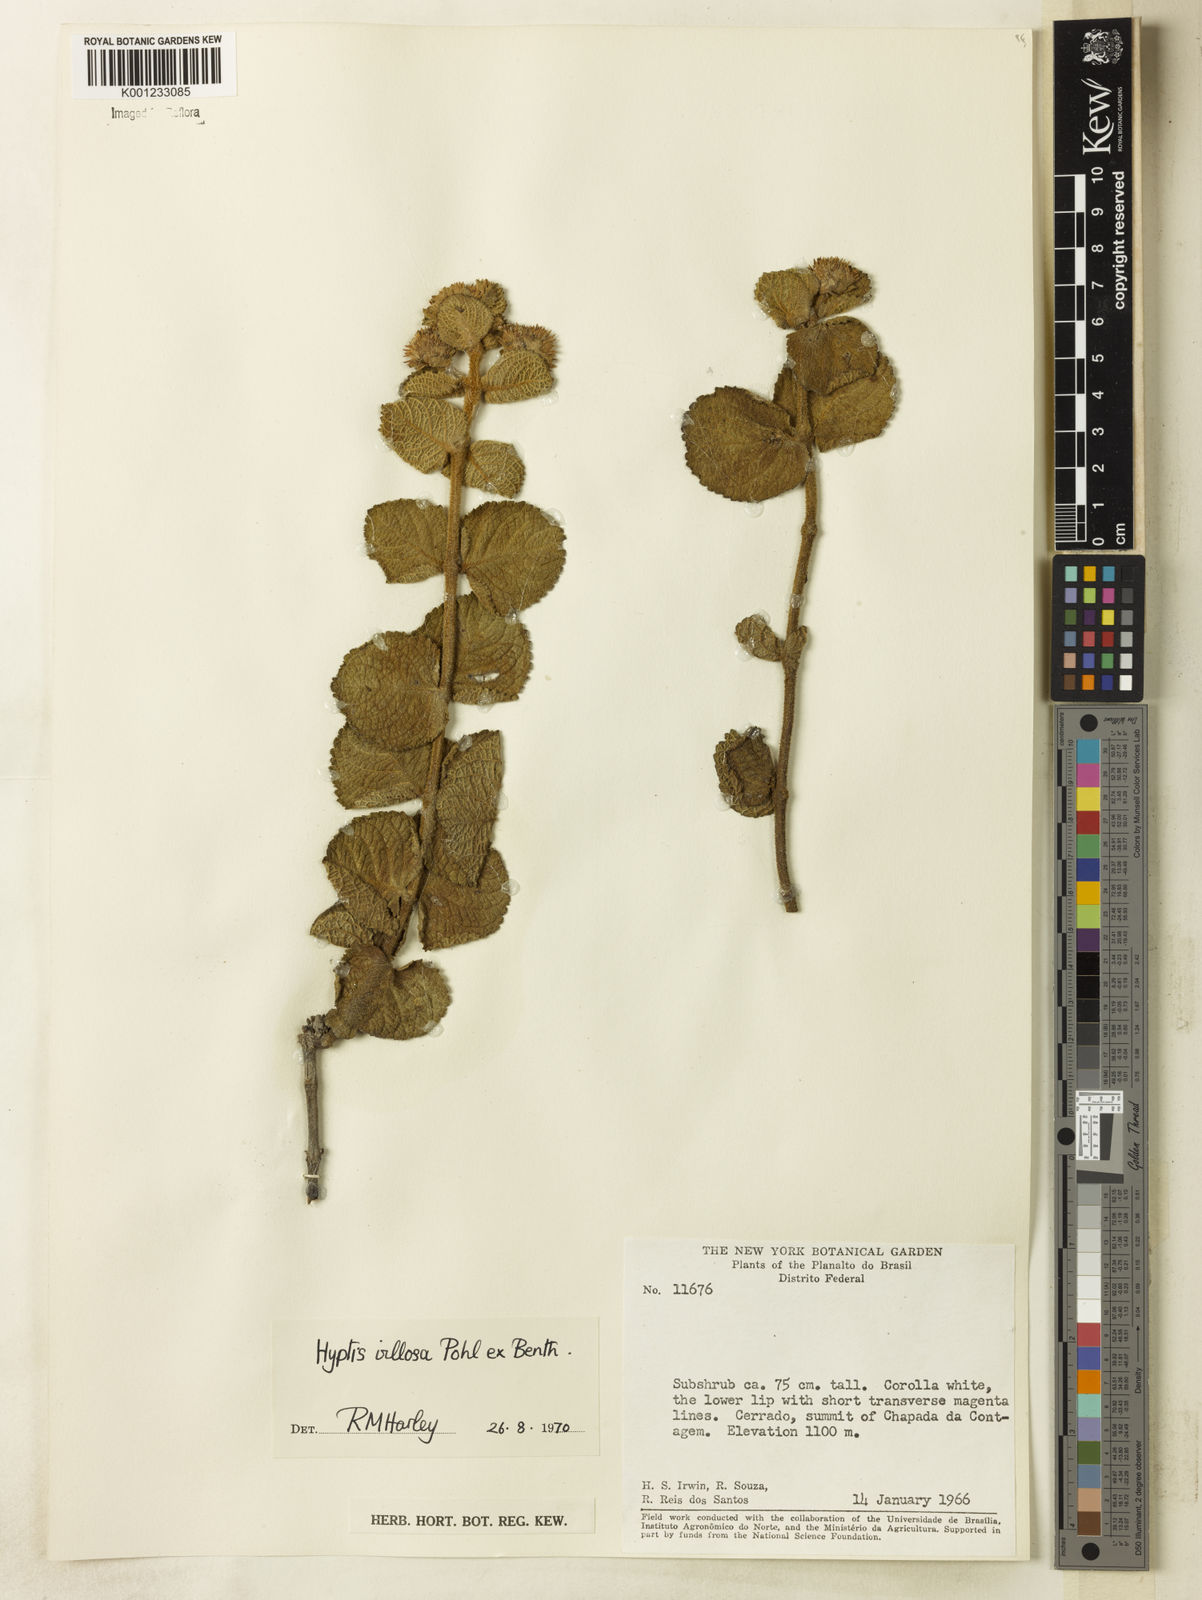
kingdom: Plantae
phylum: Tracheophyta
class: Magnoliopsida
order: Lamiales
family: Lamiaceae
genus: Hyptis
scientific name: Hyptis villosa
